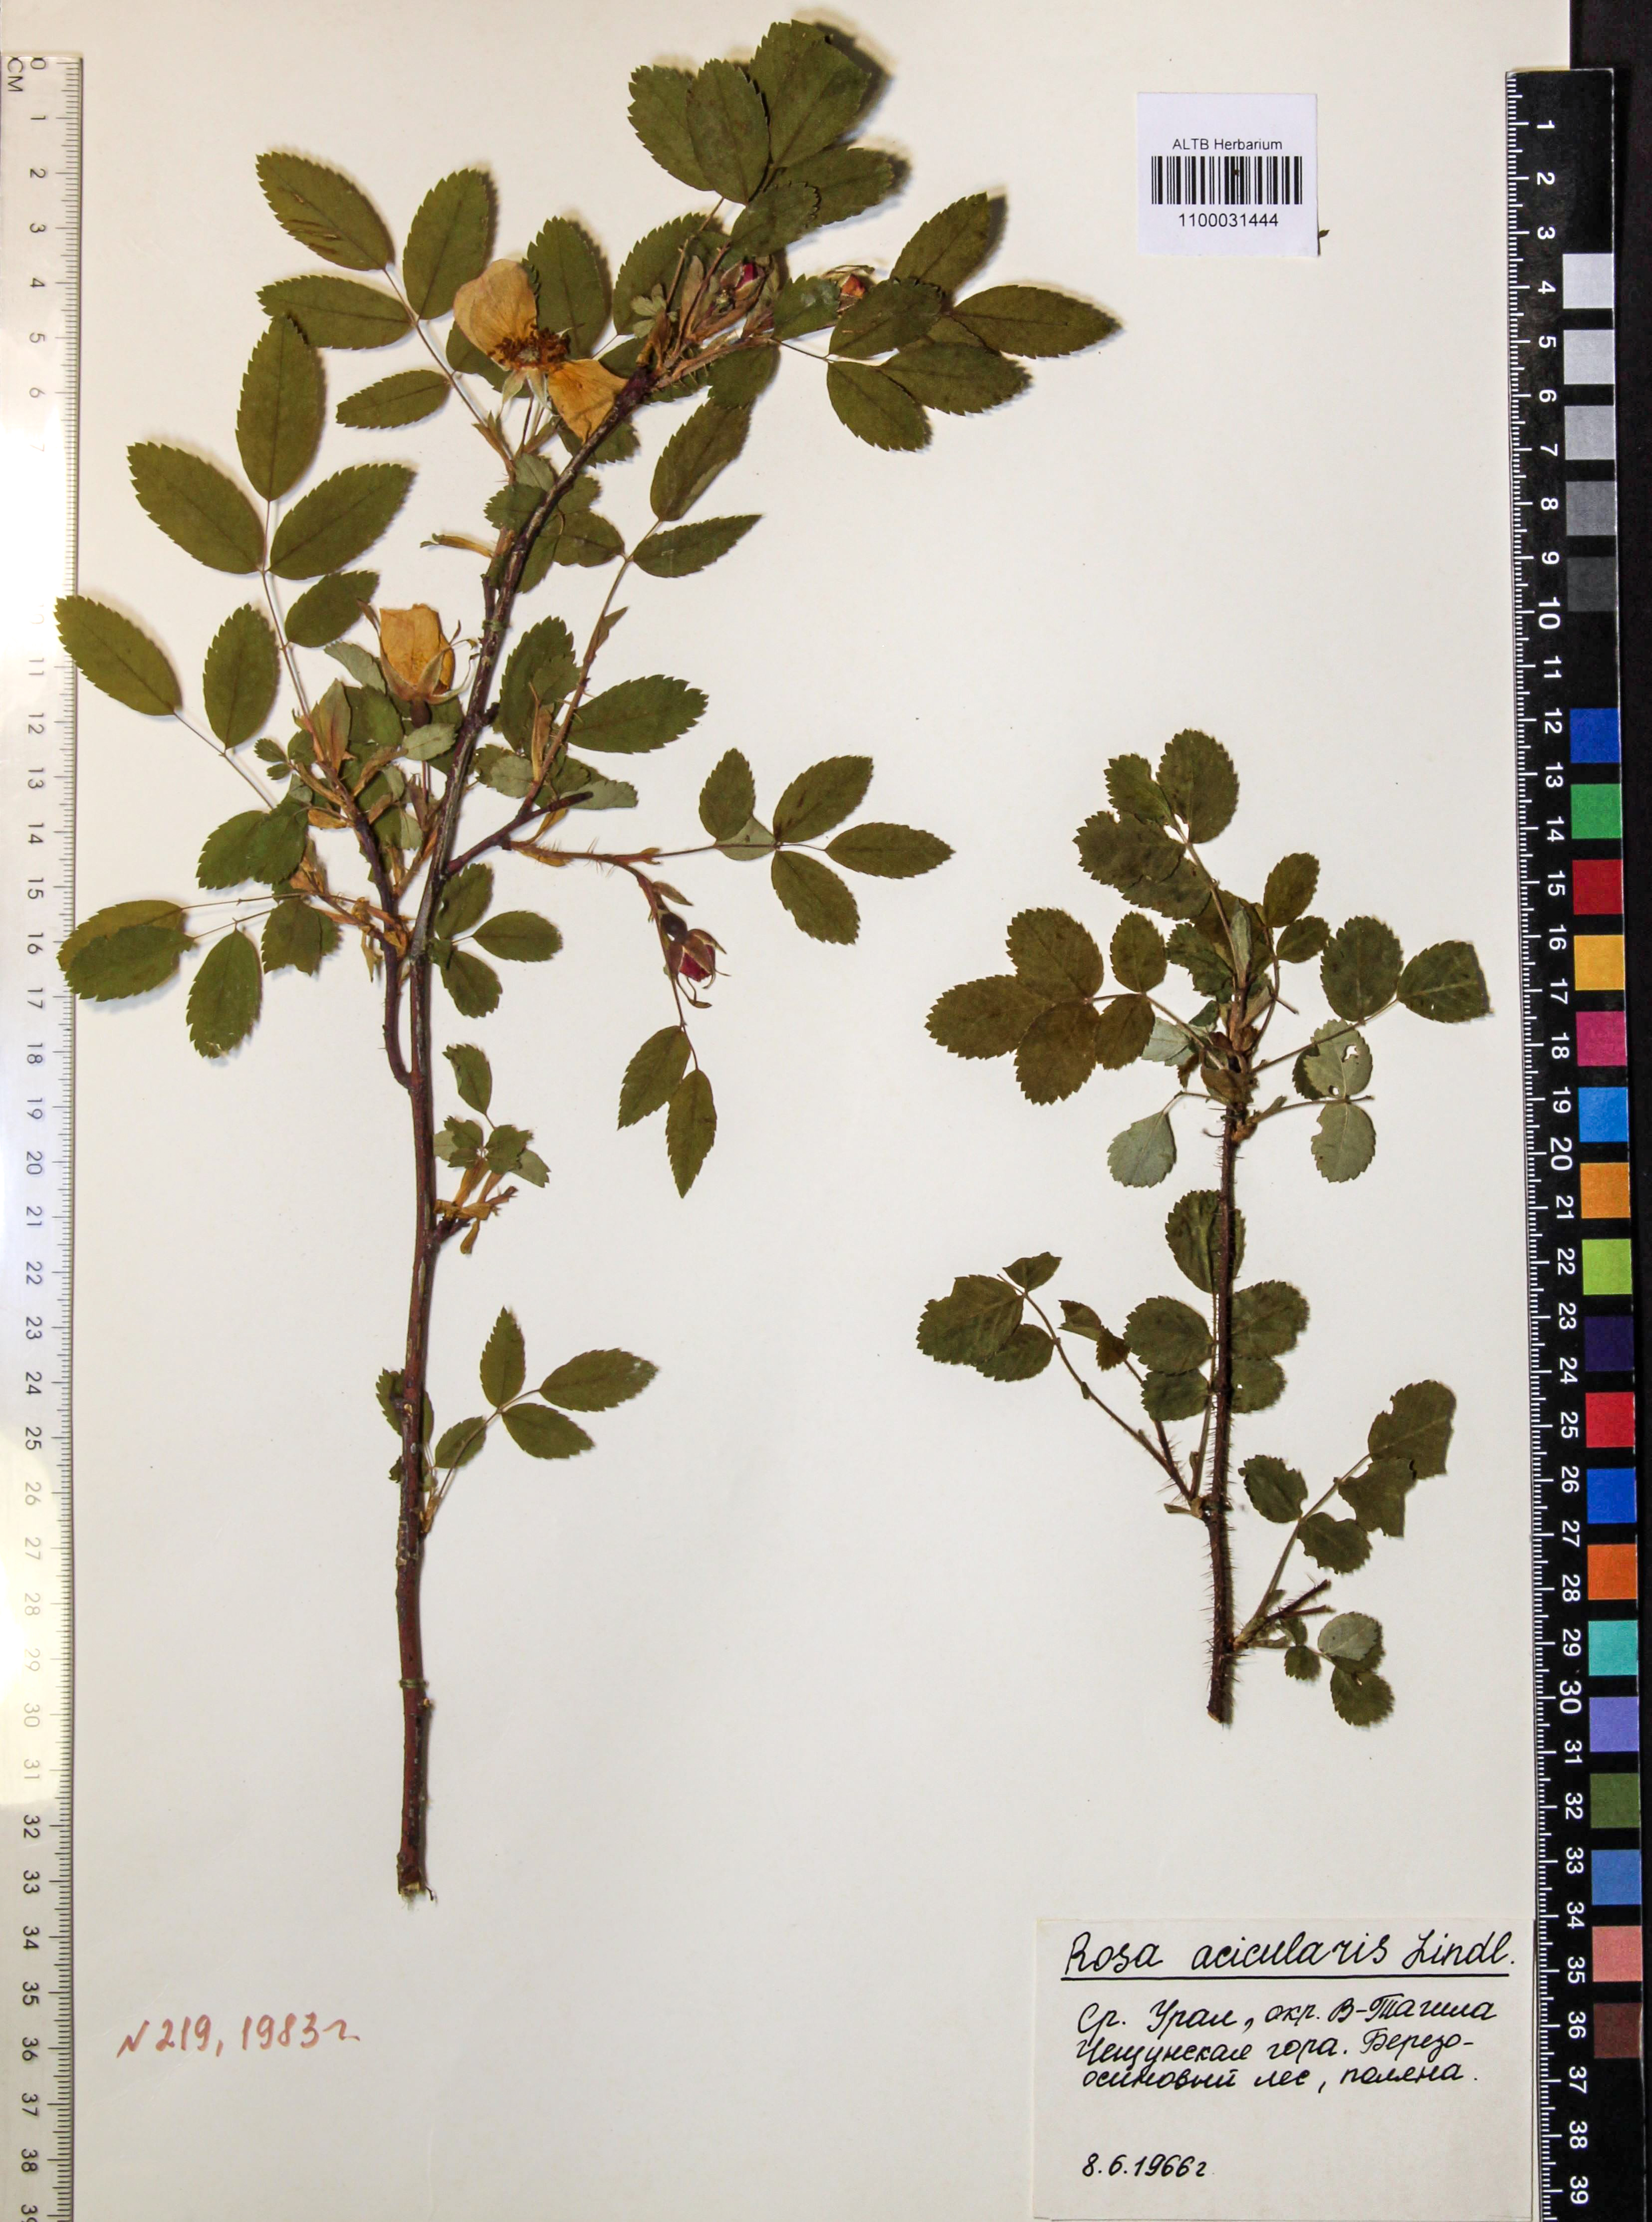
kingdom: Plantae
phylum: Tracheophyta
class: Magnoliopsida
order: Rosales
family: Rosaceae
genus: Rosa
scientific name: Rosa acicularis
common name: Prickly rose
